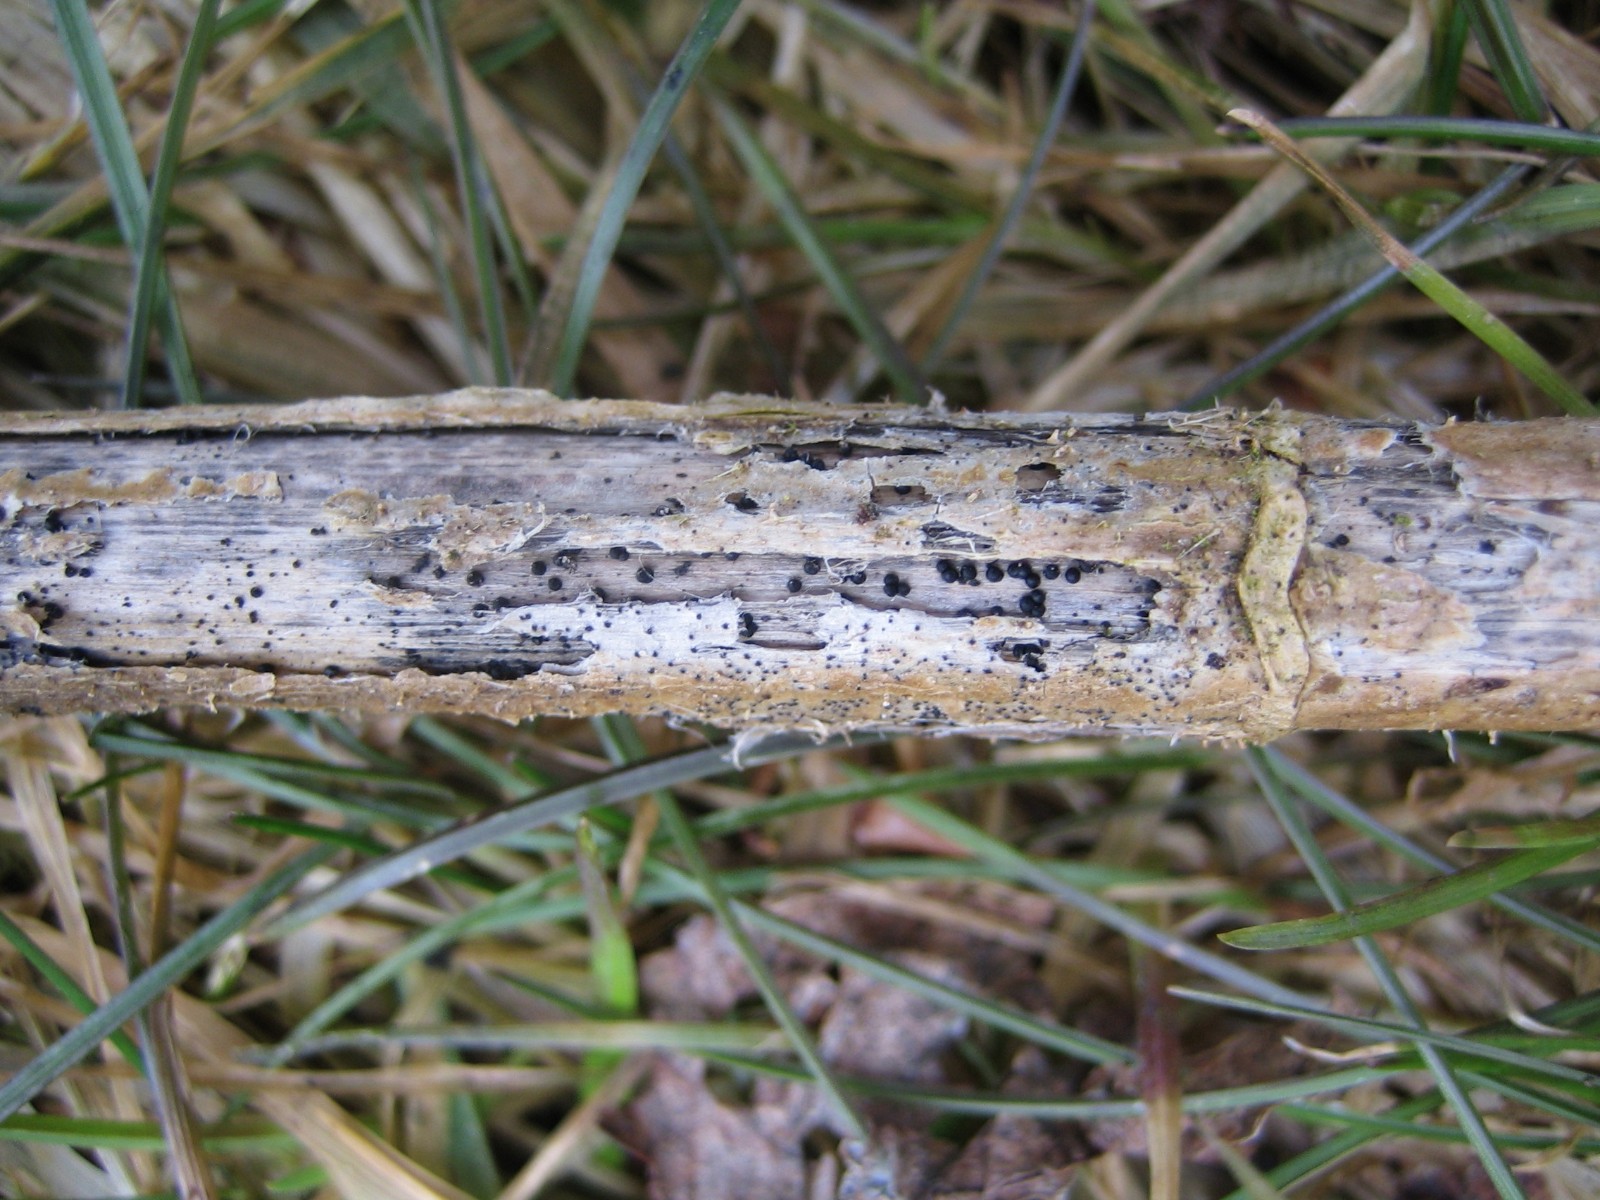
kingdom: Fungi
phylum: Ascomycota
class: Dothideomycetes
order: Pleosporales
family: Leptosphaeriaceae
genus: Leptosphaeria
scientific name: Leptosphaeria
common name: kulkegle
